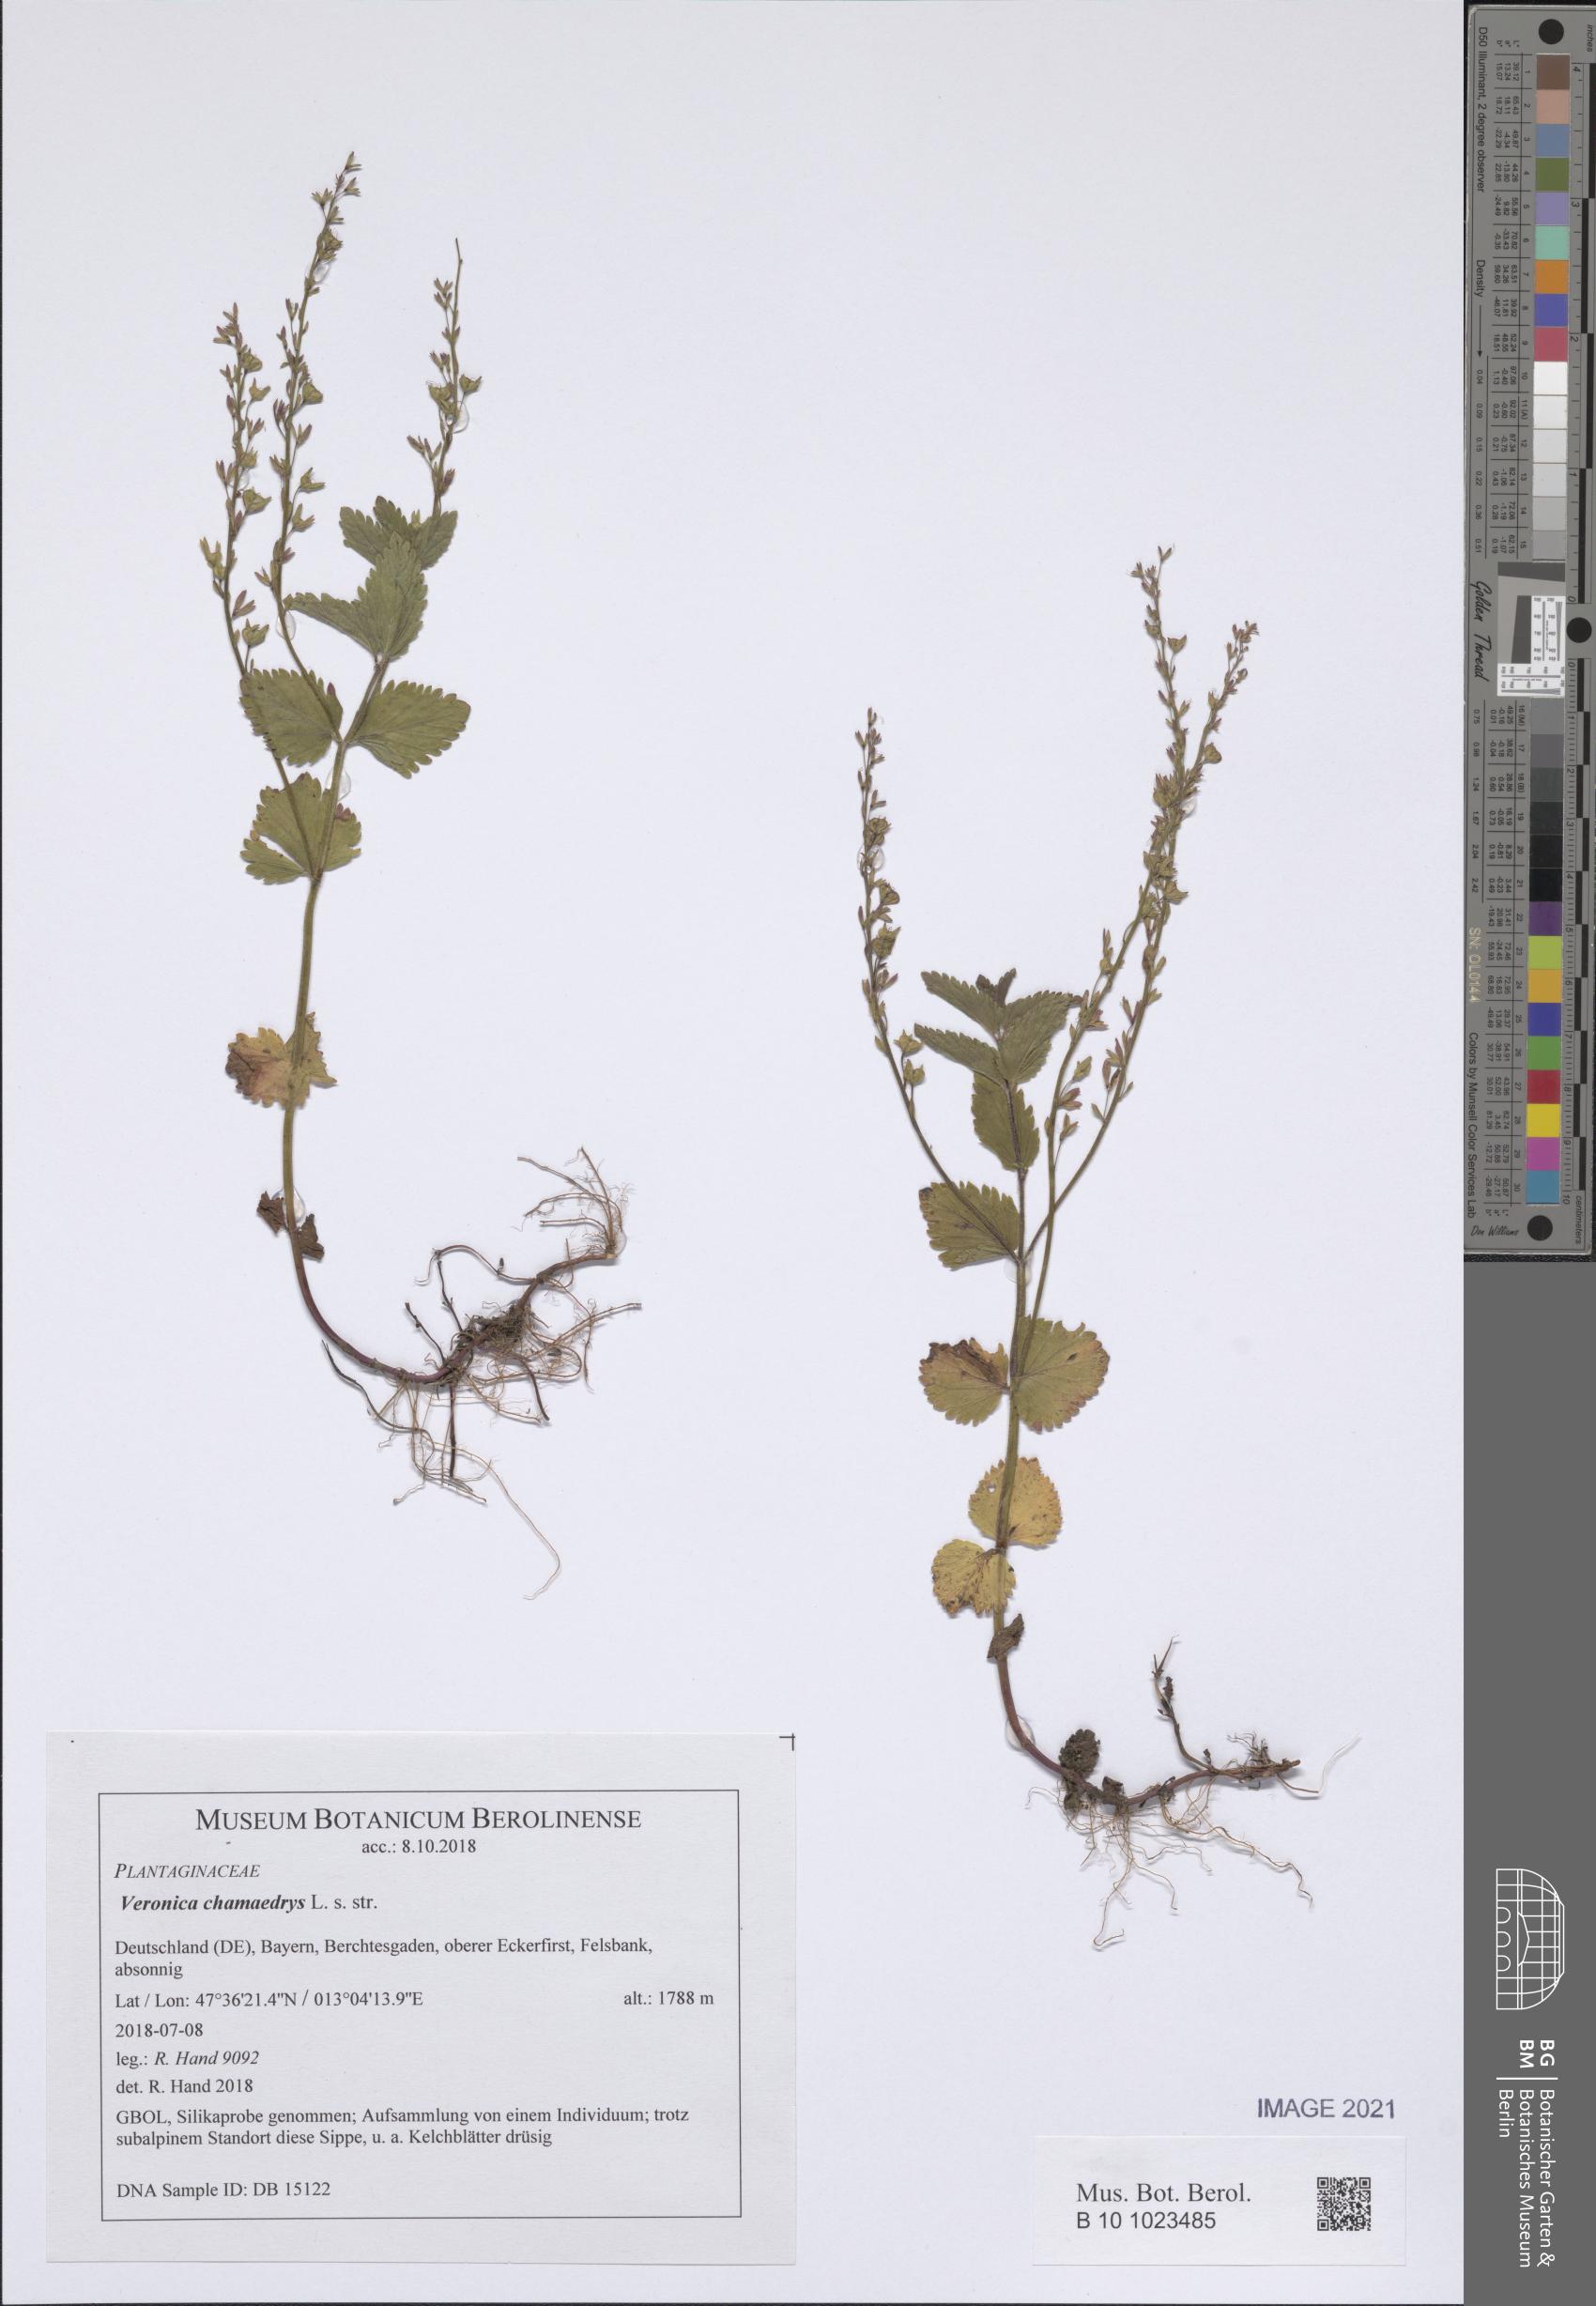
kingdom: Plantae
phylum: Tracheophyta
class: Magnoliopsida
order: Lamiales
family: Plantaginaceae
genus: Veronica
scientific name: Veronica chamaedrys
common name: Germander speedwell
